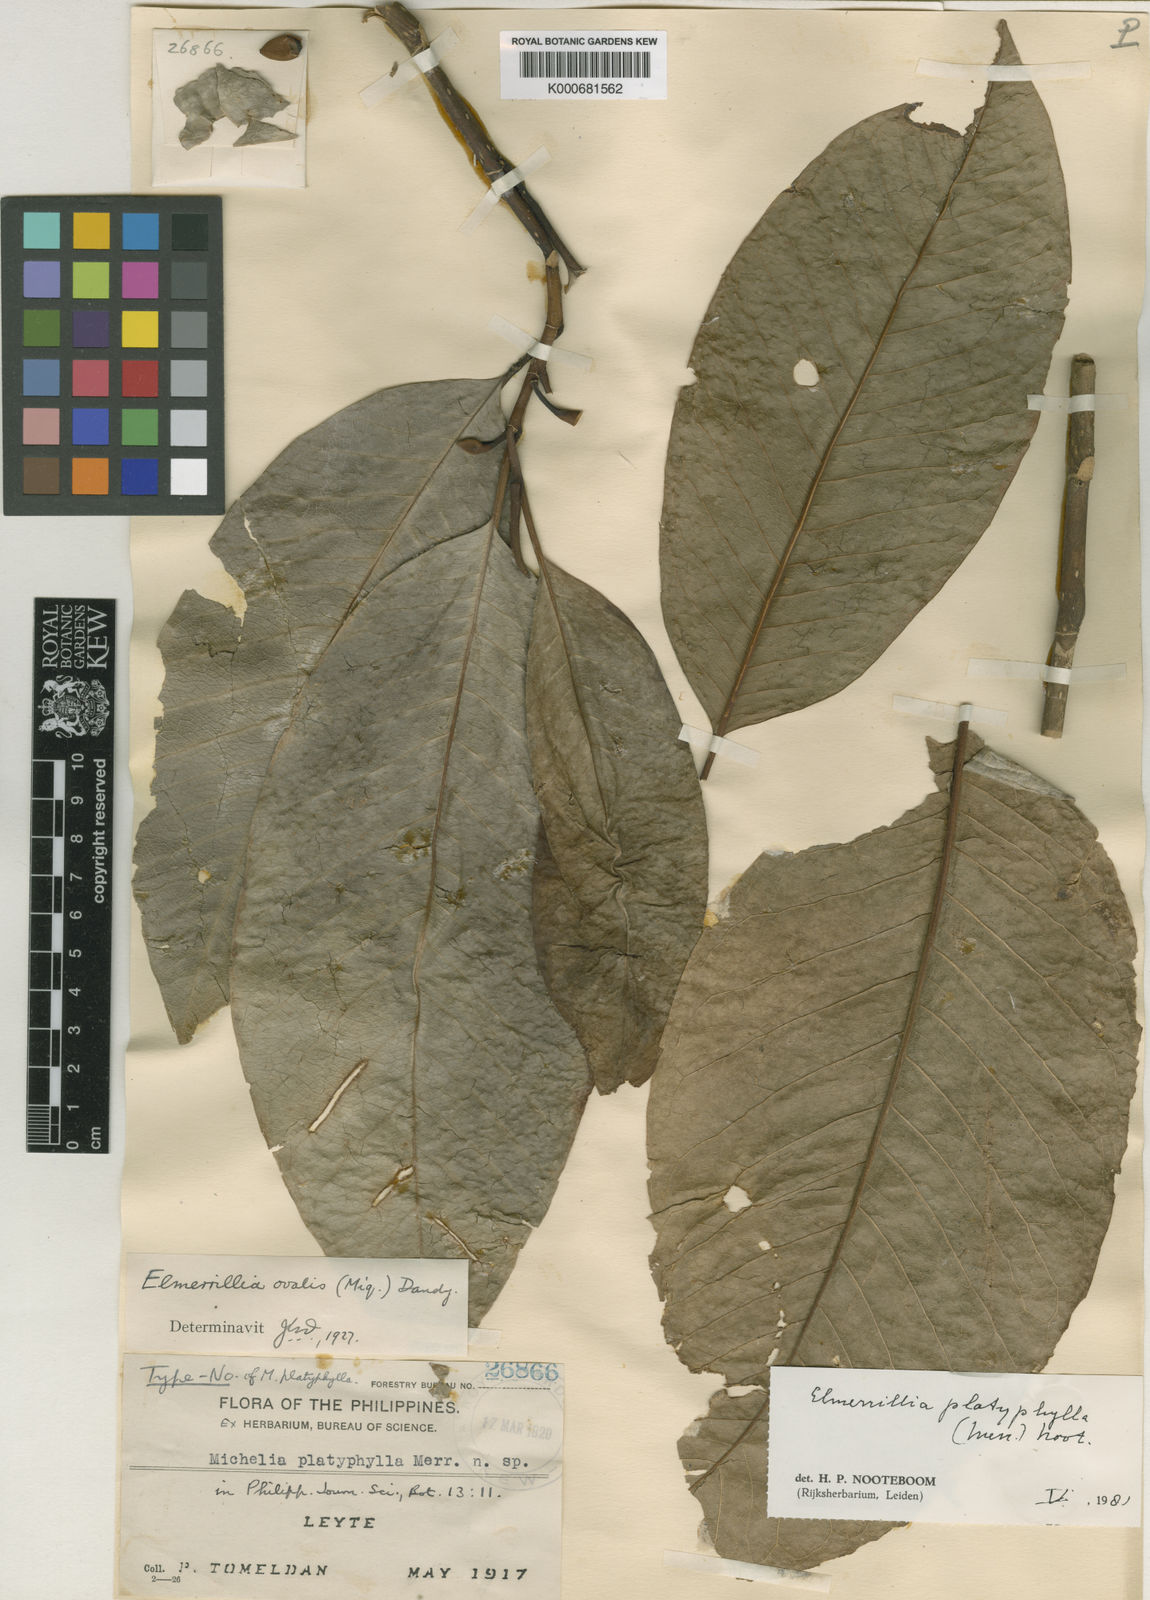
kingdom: Plantae
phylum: Tracheophyta
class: Magnoliopsida
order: Magnoliales
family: Magnoliaceae
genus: Magnolia
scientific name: Magnolia platyphylla
